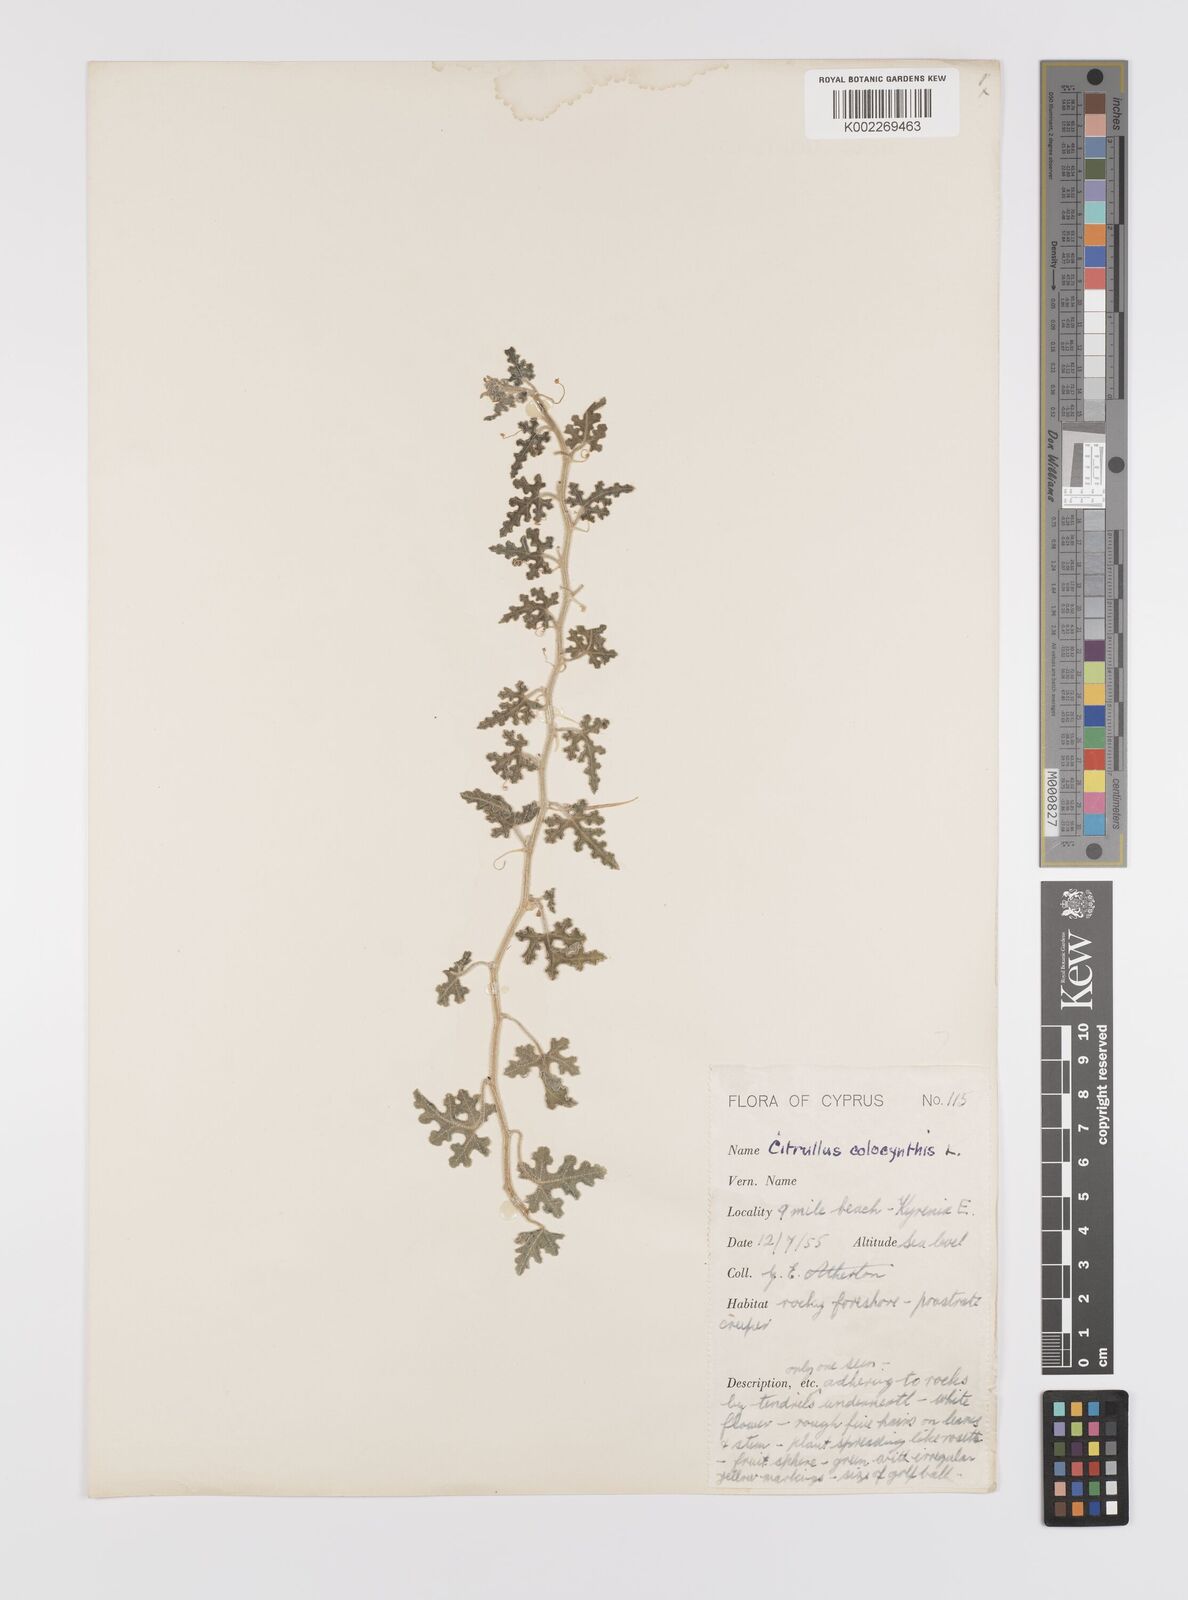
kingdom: Plantae
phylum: Tracheophyta
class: Magnoliopsida
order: Cucurbitales
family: Cucurbitaceae
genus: Citrullus
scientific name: Citrullus colocynthis
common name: Colocynth
